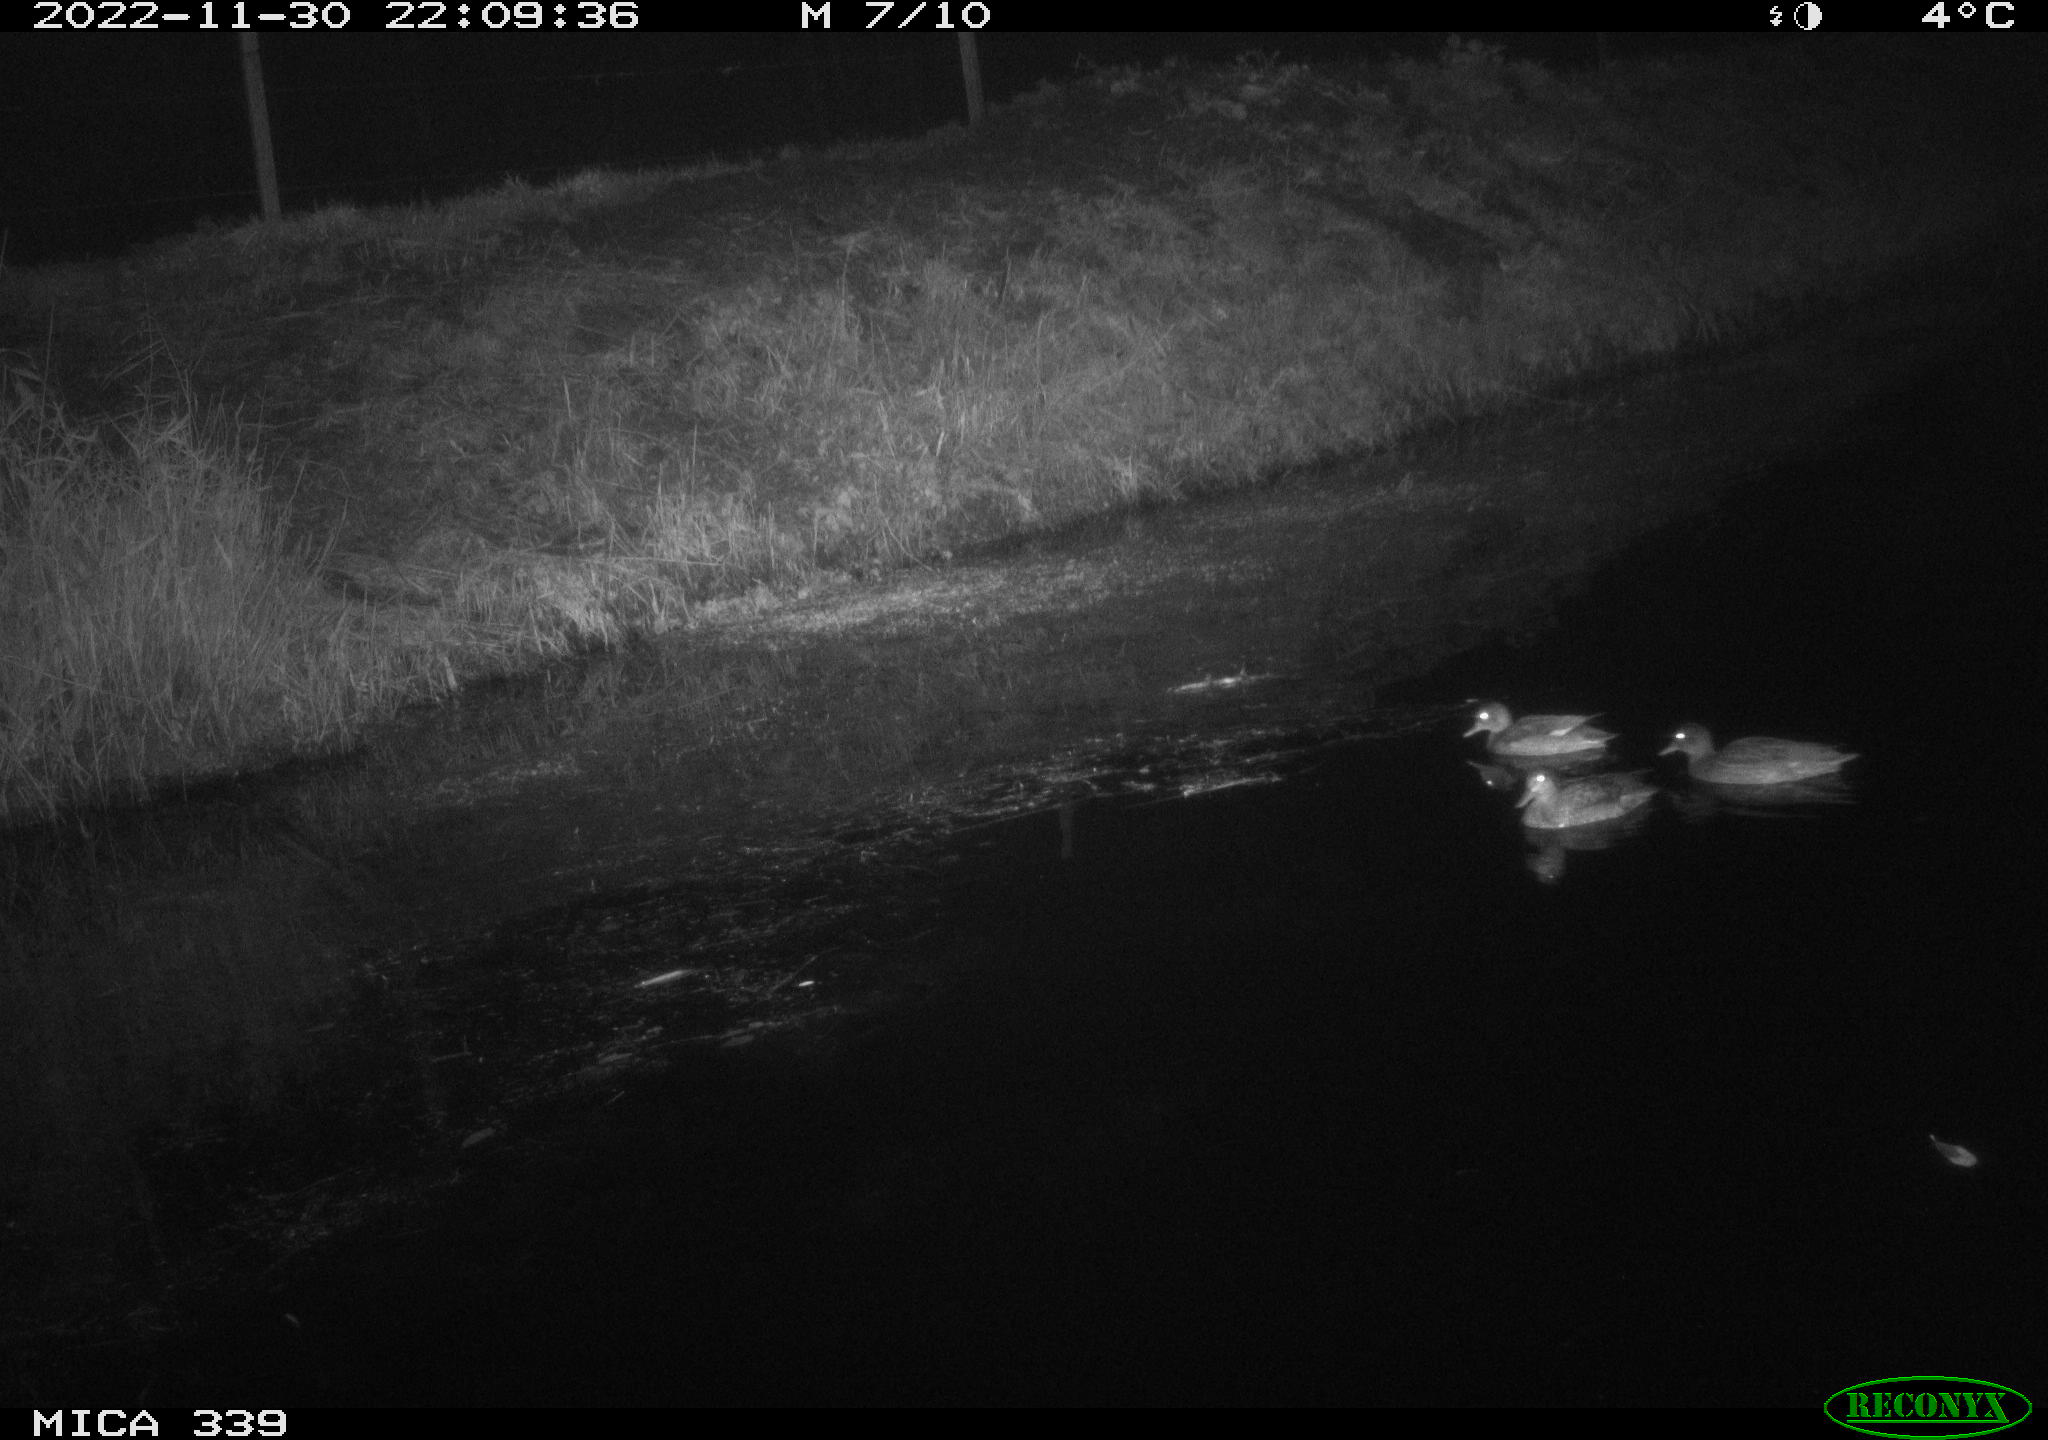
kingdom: Animalia
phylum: Chordata
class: Aves
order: Anseriformes
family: Anatidae
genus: Anas
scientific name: Anas
